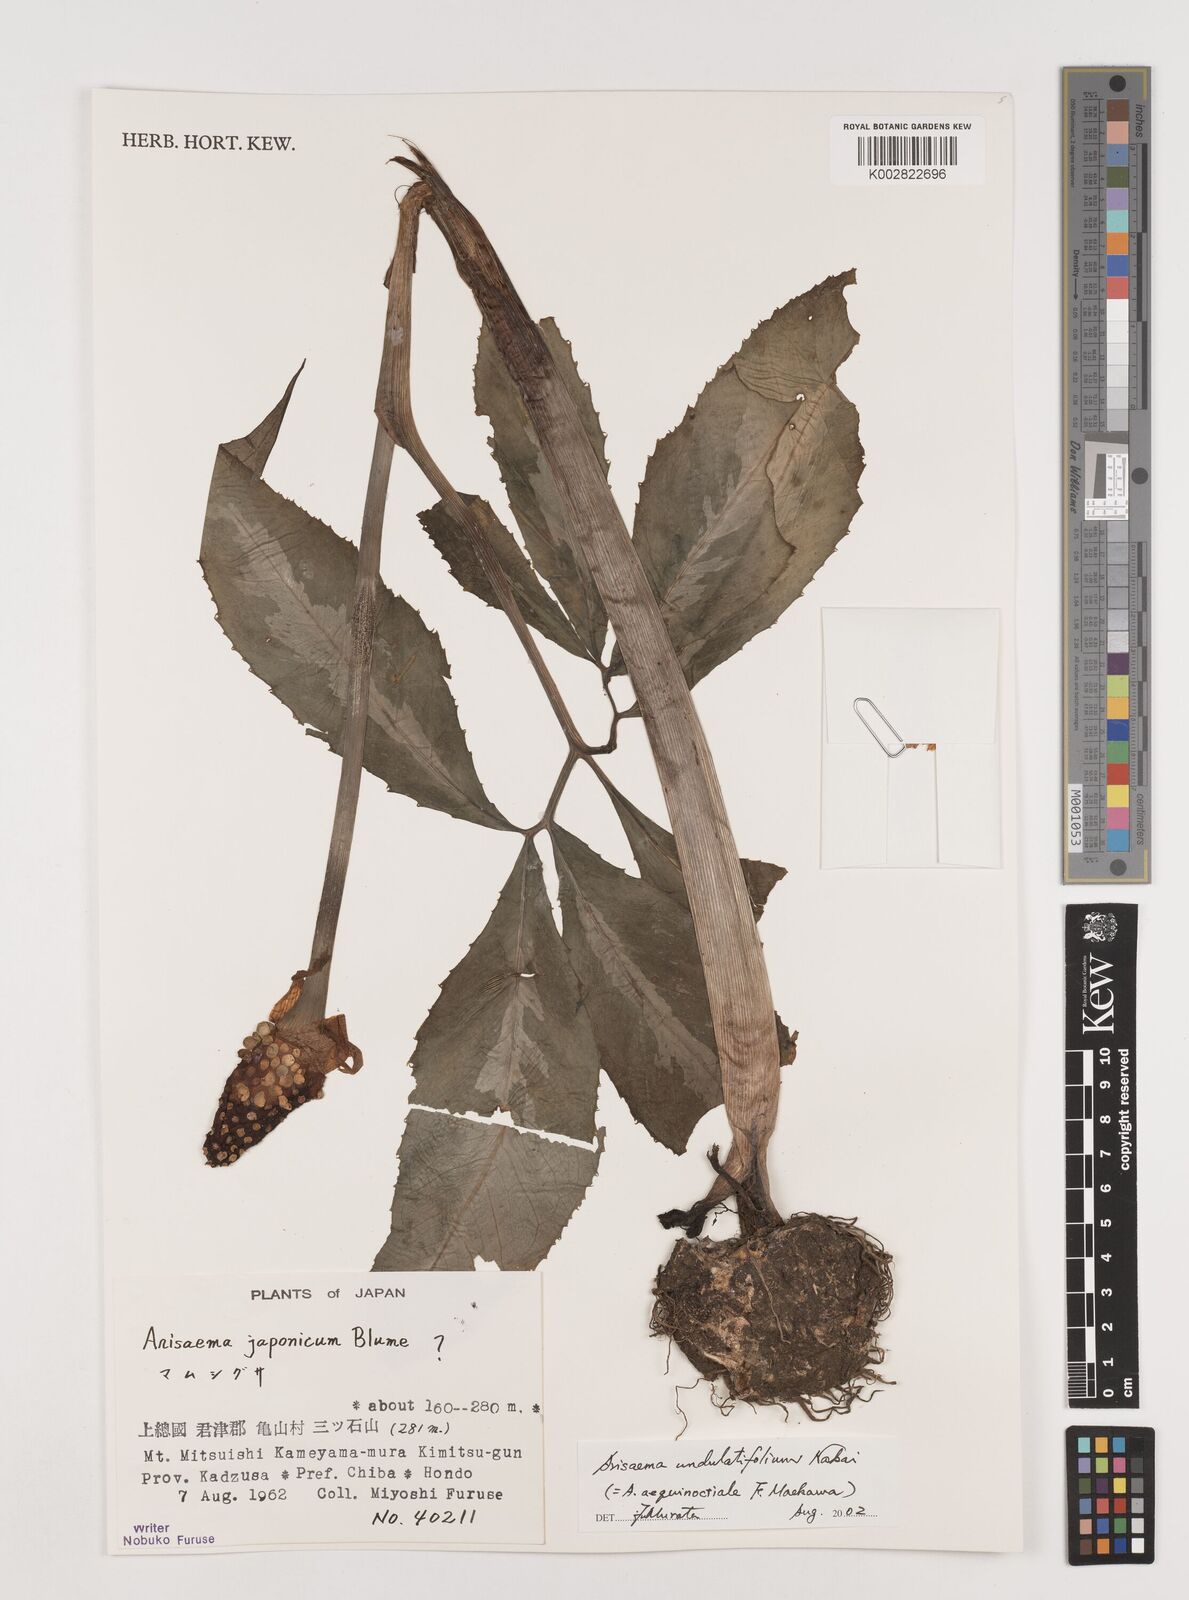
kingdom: Plantae
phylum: Tracheophyta
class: Liliopsida
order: Alismatales
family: Araceae
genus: Arisaema
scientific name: Arisaema undulatifolium
